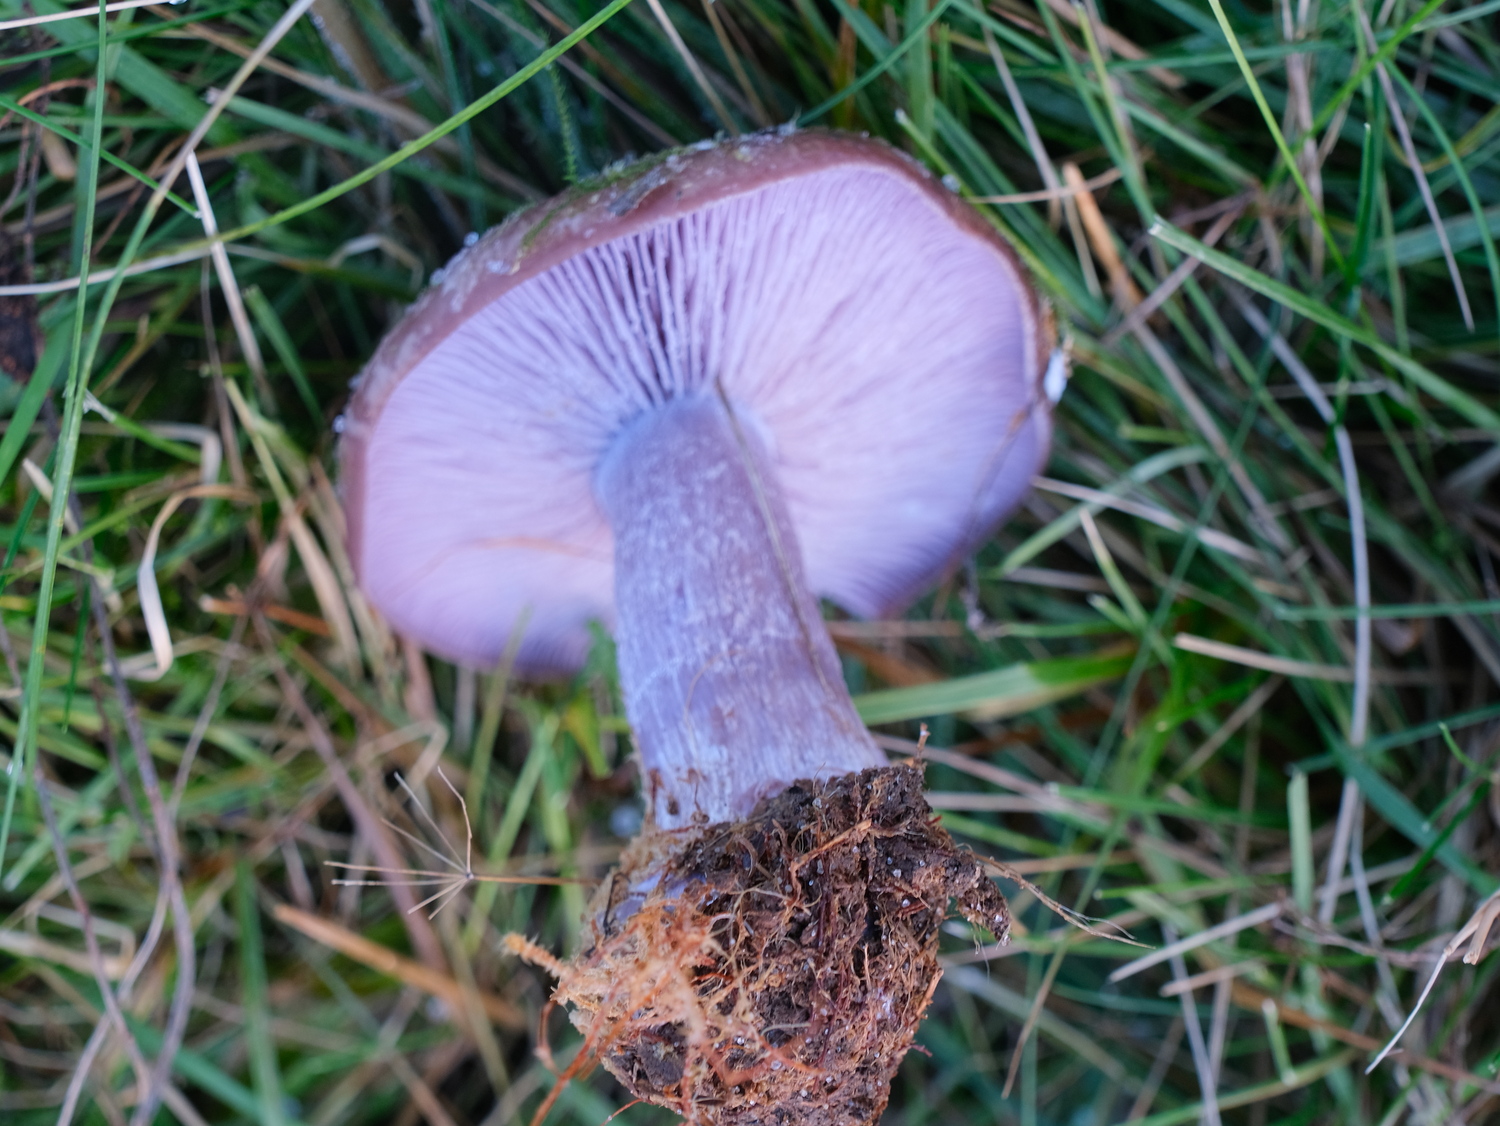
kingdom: Fungi
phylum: Basidiomycota
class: Agaricomycetes
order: Agaricales
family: Tricholomataceae
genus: Lepista
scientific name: Lepista nuda
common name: violet hekseringshat
